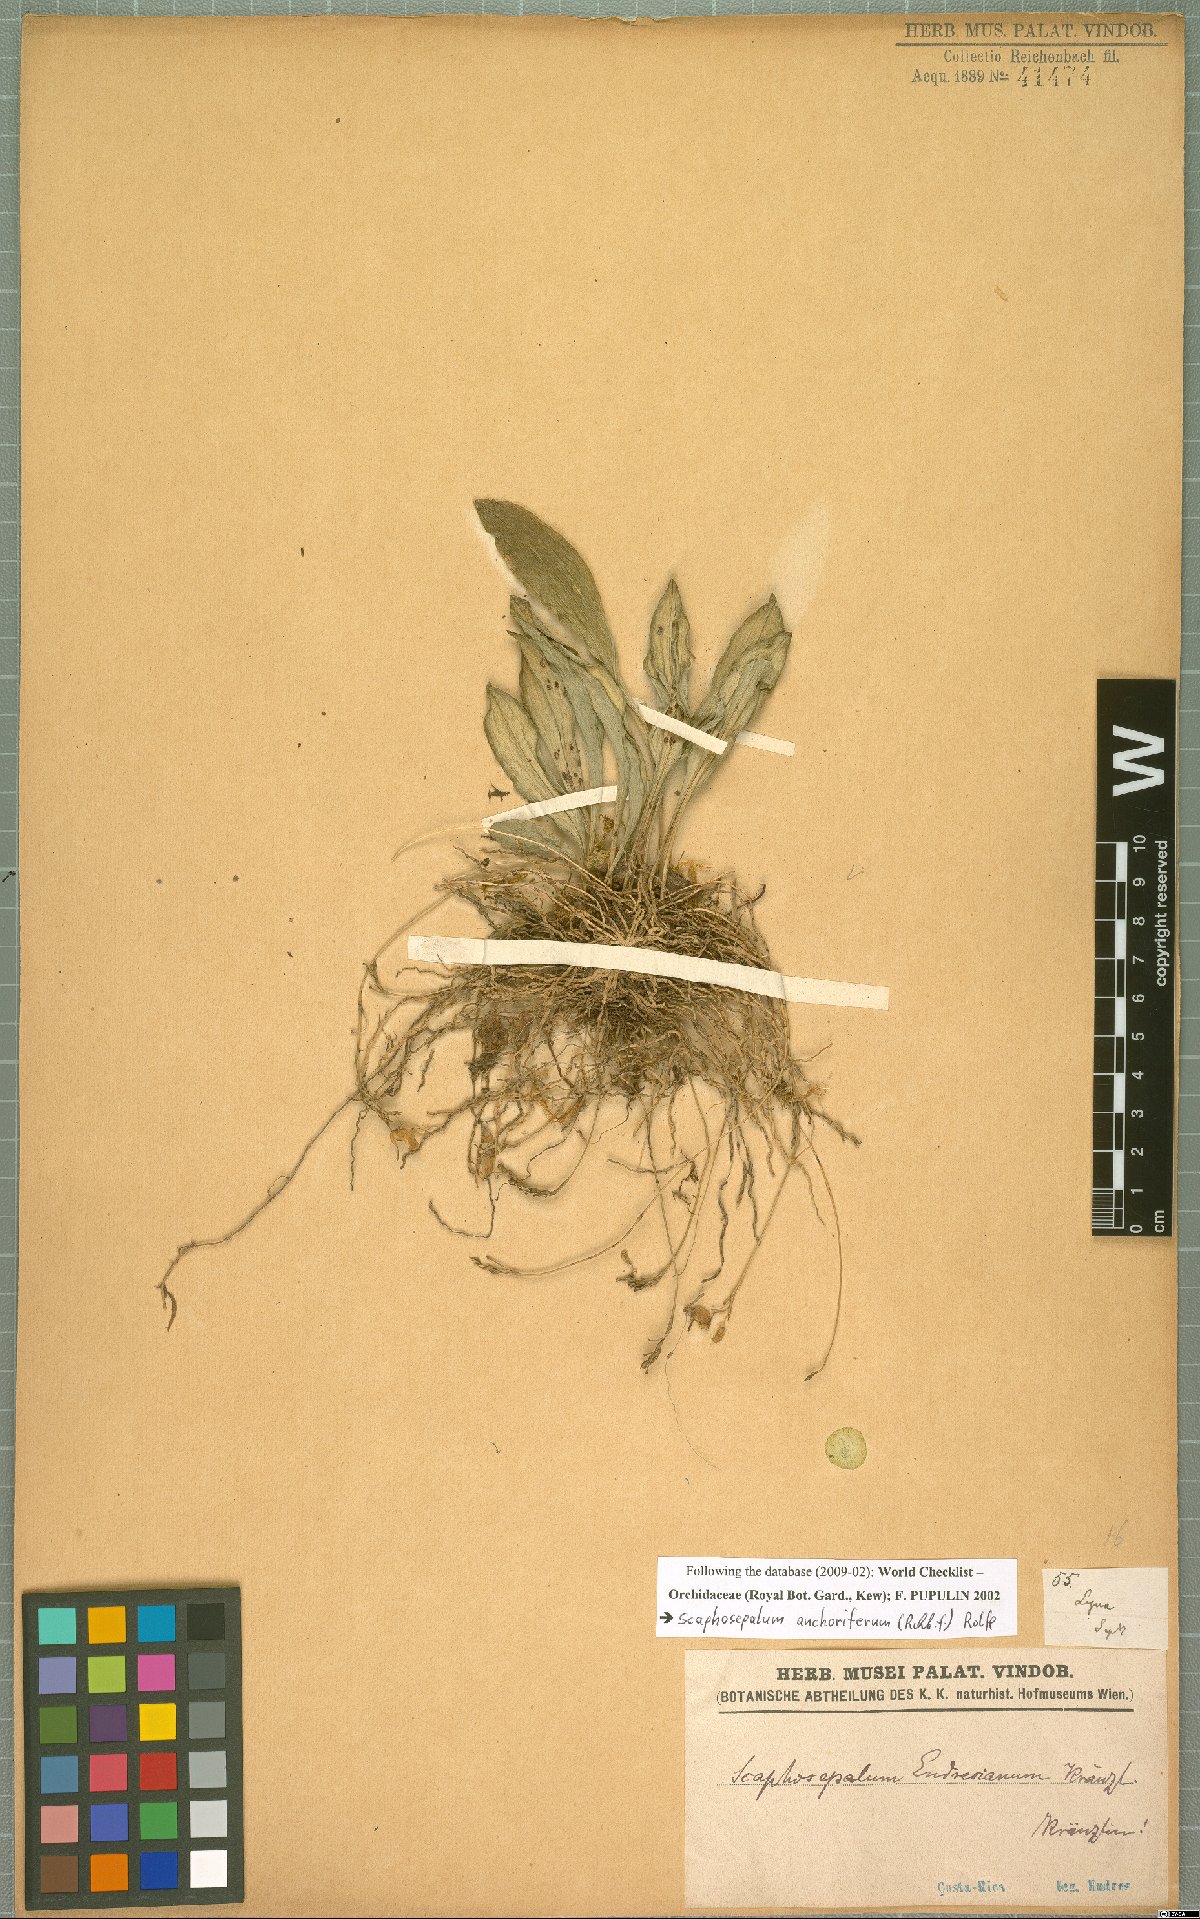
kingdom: Plantae
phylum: Tracheophyta
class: Liliopsida
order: Asparagales
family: Orchidaceae
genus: Scaphosepalum
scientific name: Scaphosepalum anchoriferum
